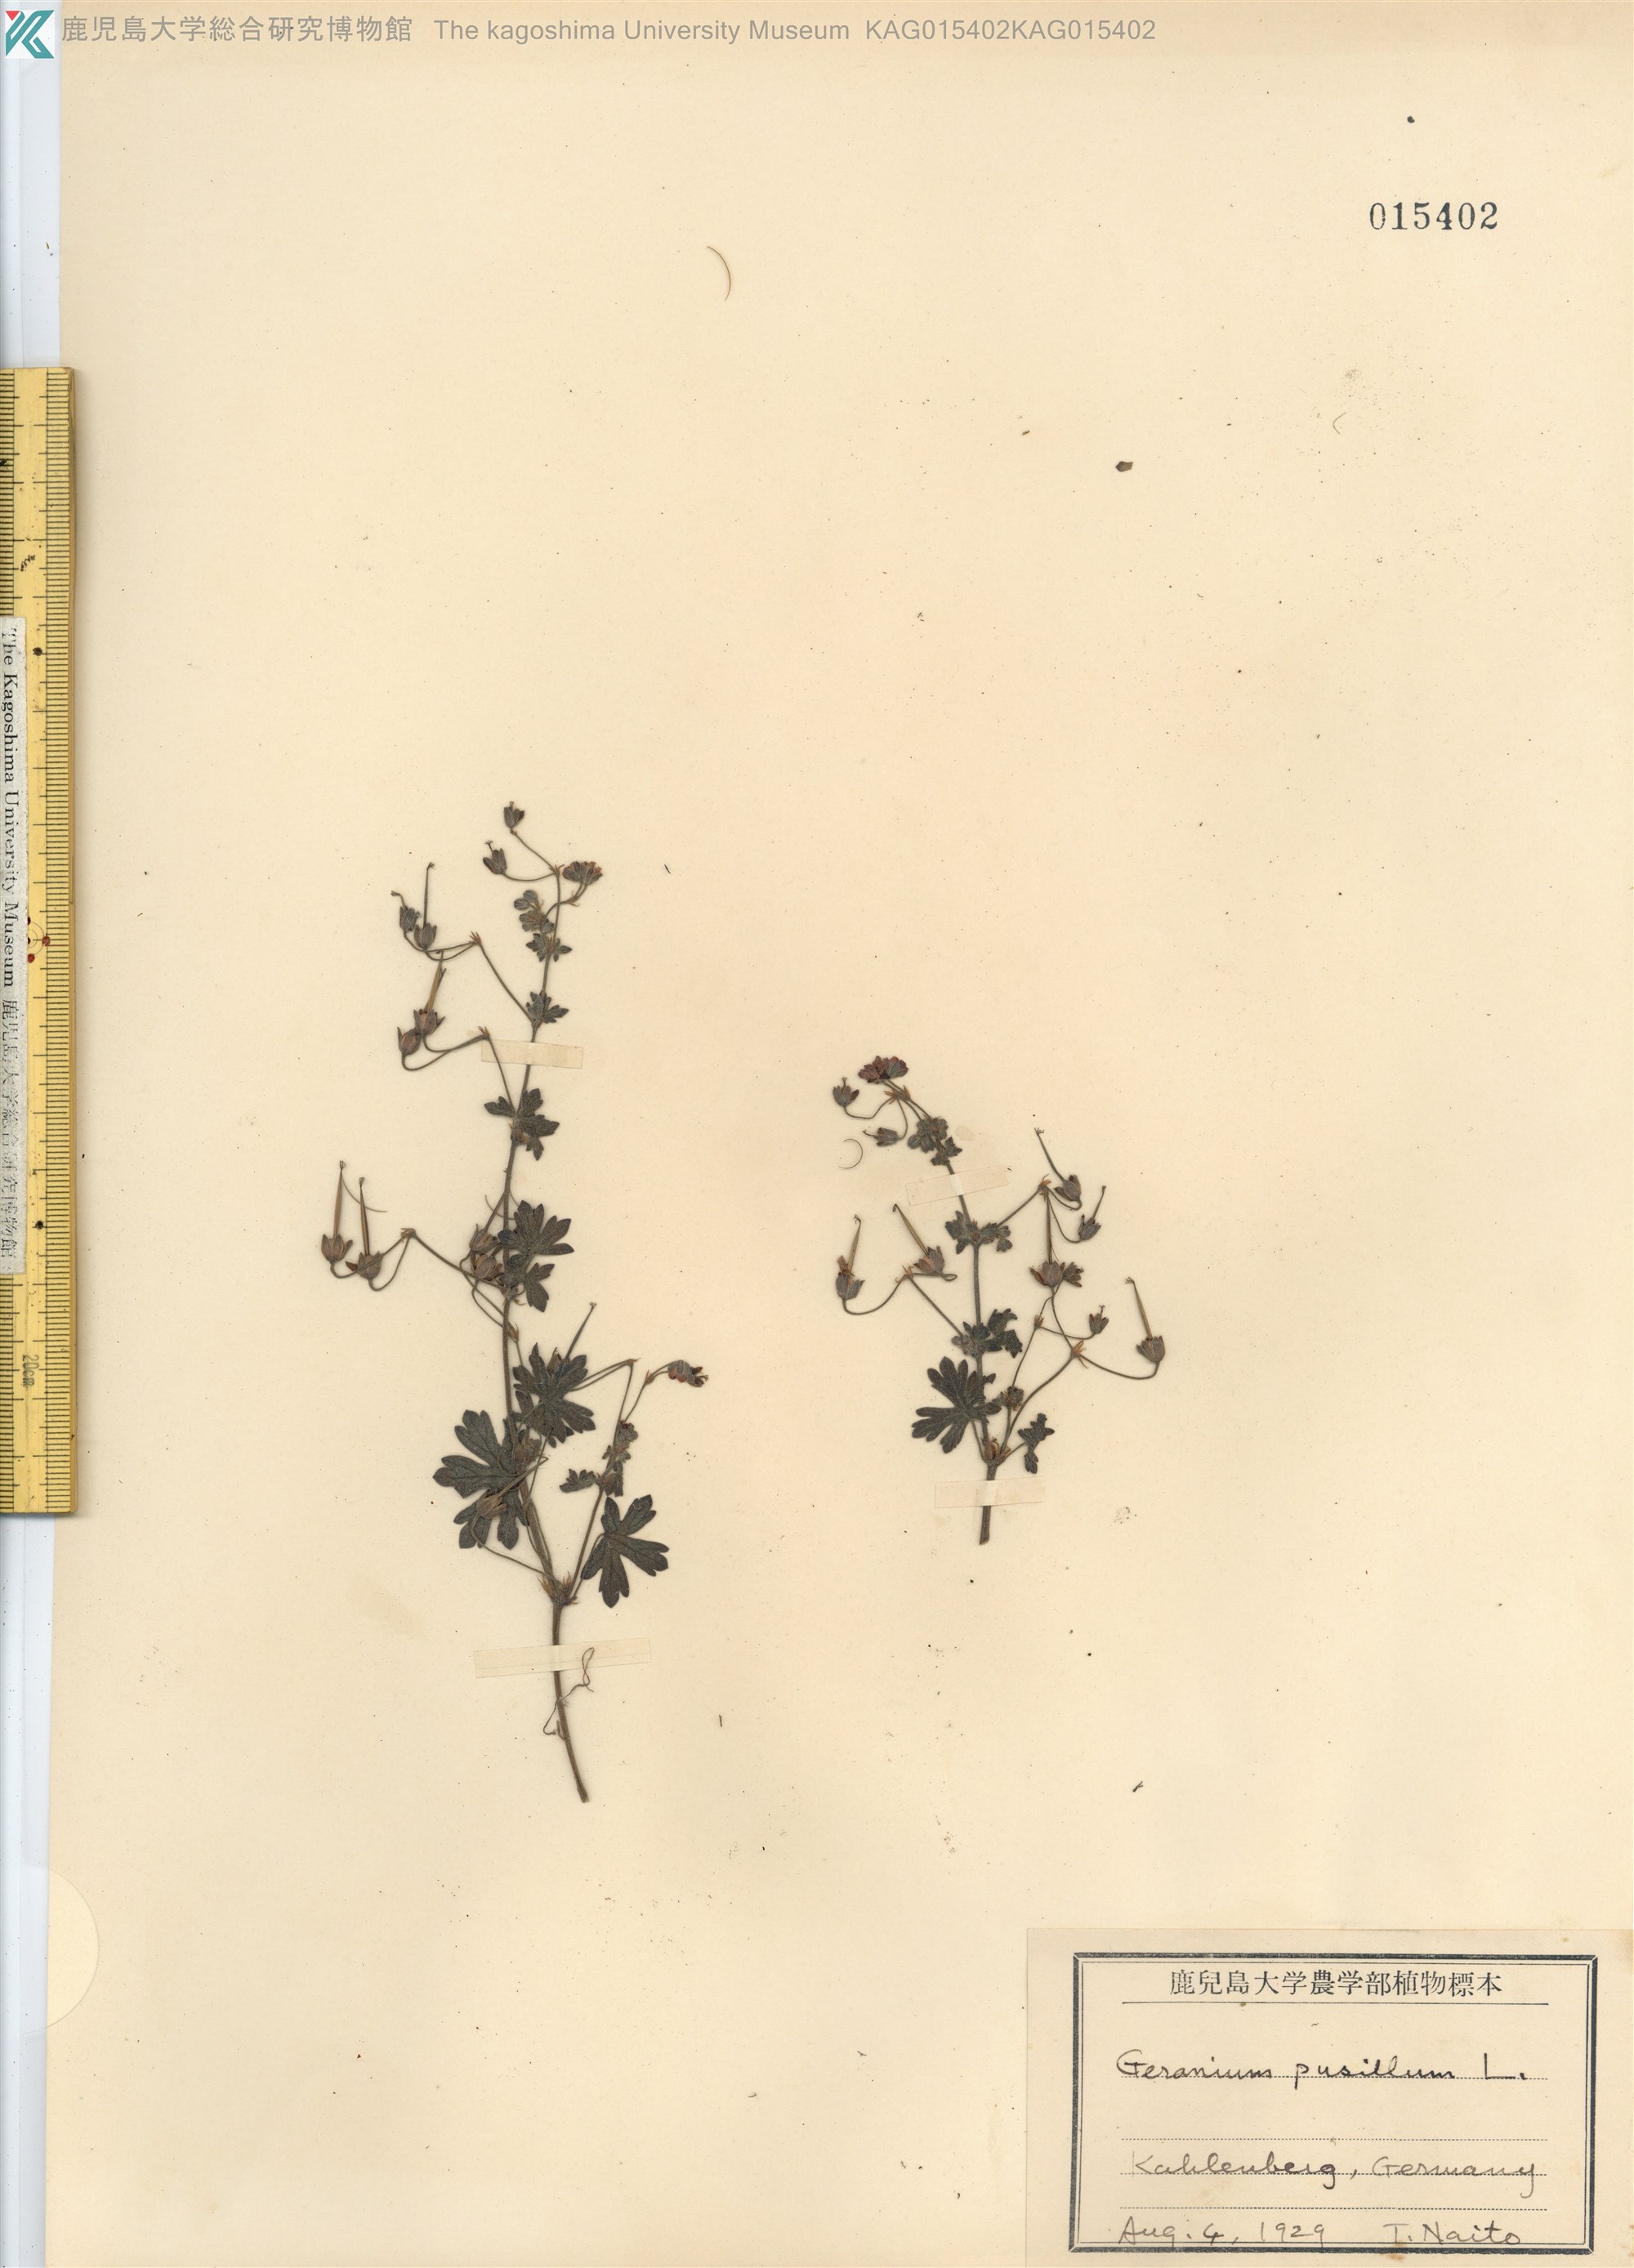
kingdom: Plantae
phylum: Tracheophyta
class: Magnoliopsida
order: Geraniales
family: Geraniaceae
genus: Geranium
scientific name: Geranium pusillum
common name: Small geranium
